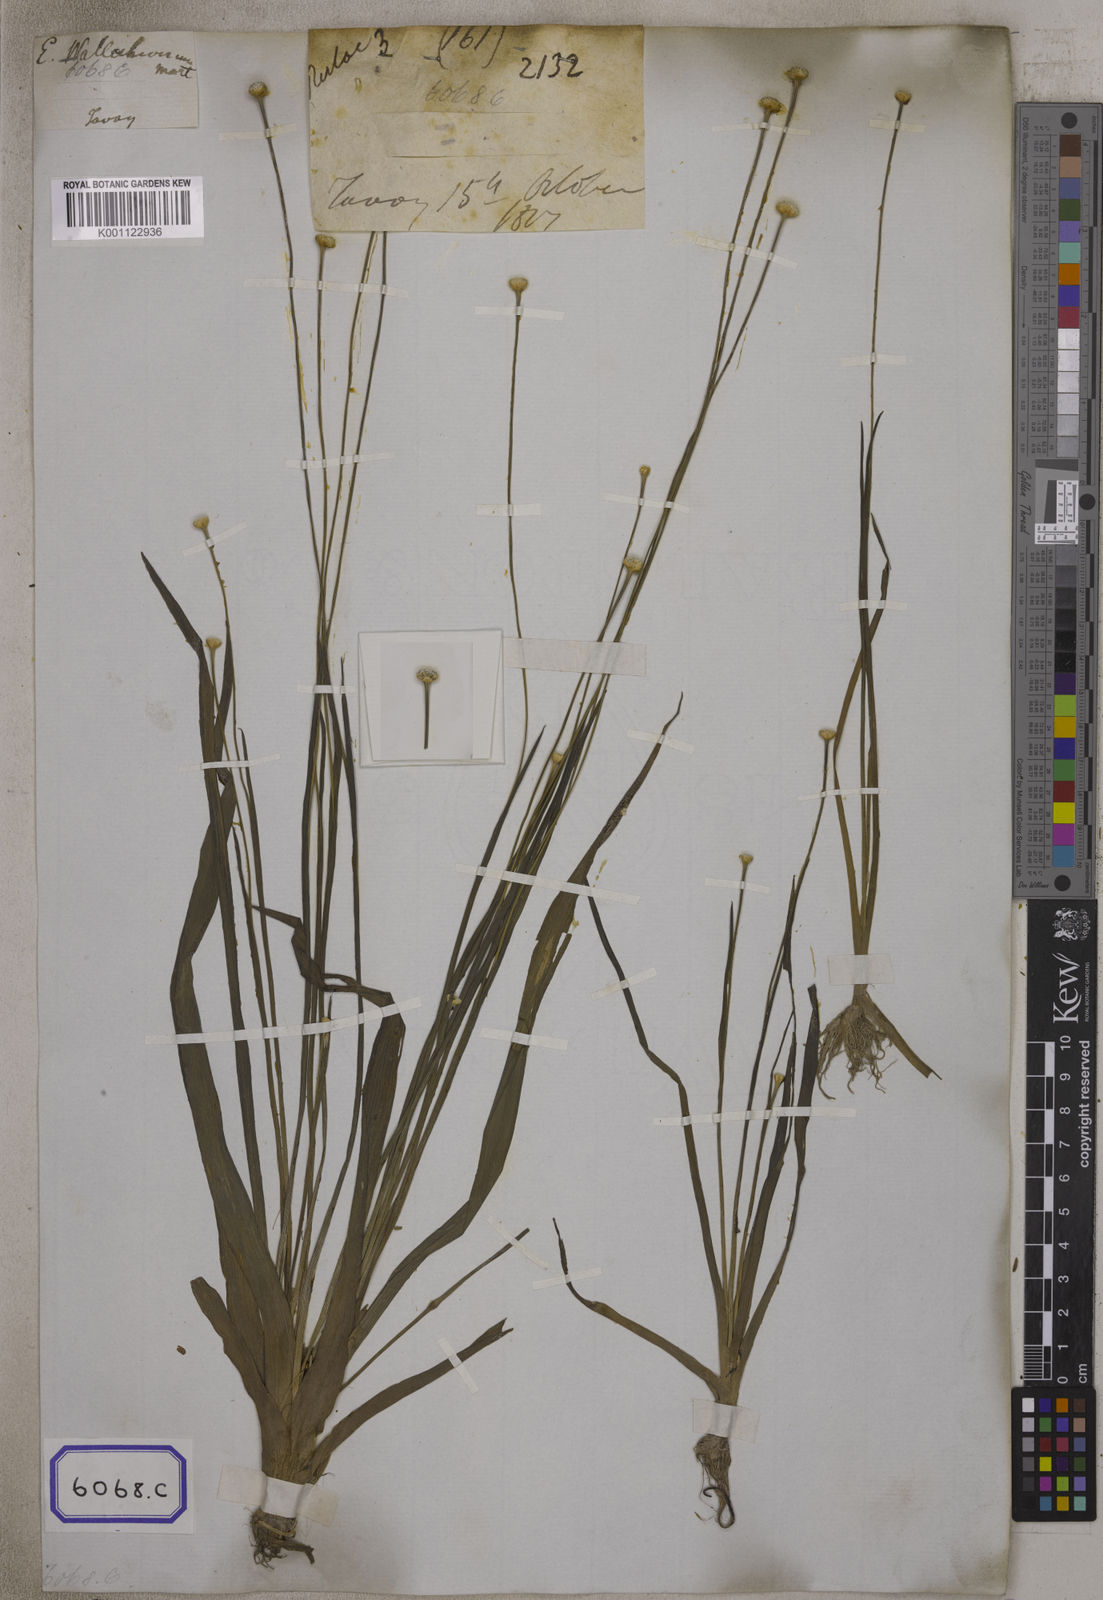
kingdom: Plantae
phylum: Tracheophyta
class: Liliopsida
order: Poales
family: Eriocaulaceae
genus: Eriocaulon
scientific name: Eriocaulon sexangulare
